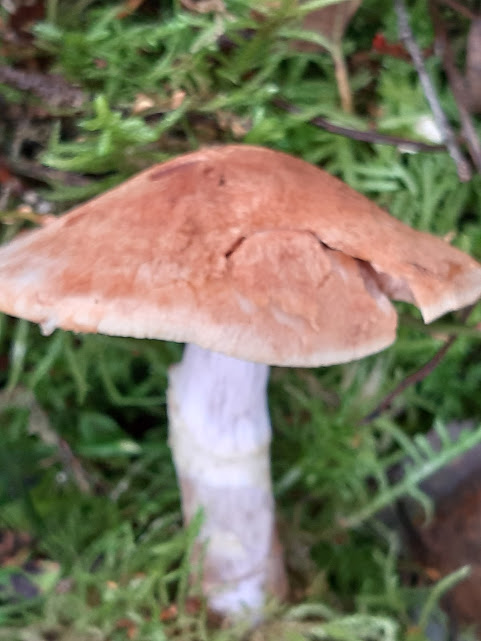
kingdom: Fungi
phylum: Basidiomycota
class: Agaricomycetes
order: Agaricales
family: Cortinariaceae
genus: Cortinarius
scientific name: Cortinarius
